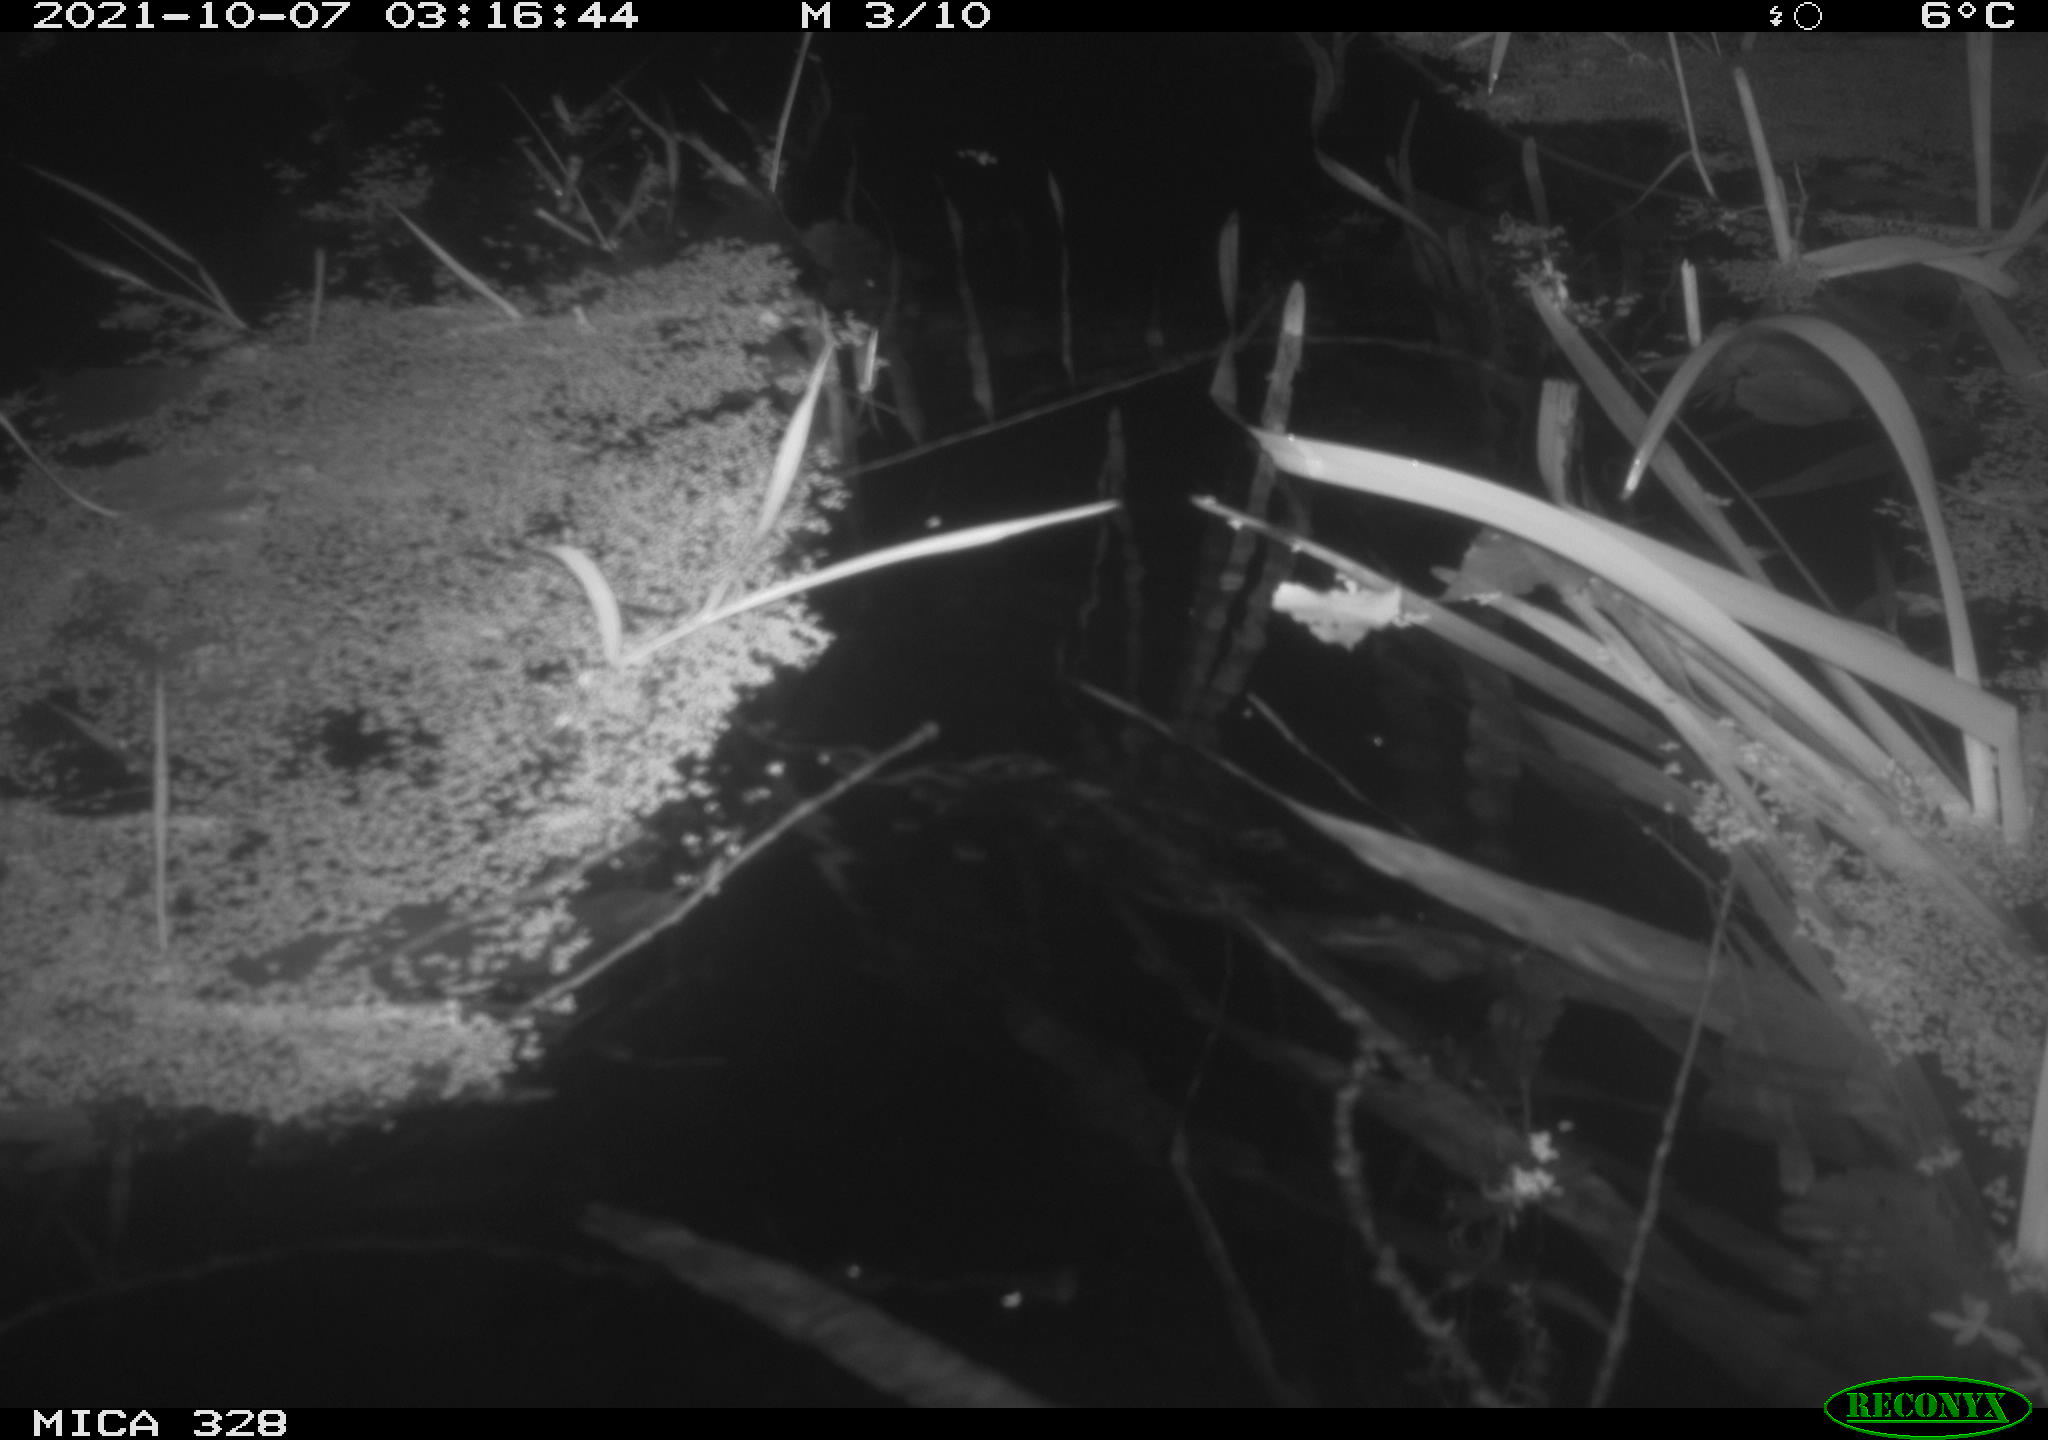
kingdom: Animalia
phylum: Chordata
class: Mammalia
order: Rodentia
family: Cricetidae
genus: Ondatra
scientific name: Ondatra zibethicus
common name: Muskrat
